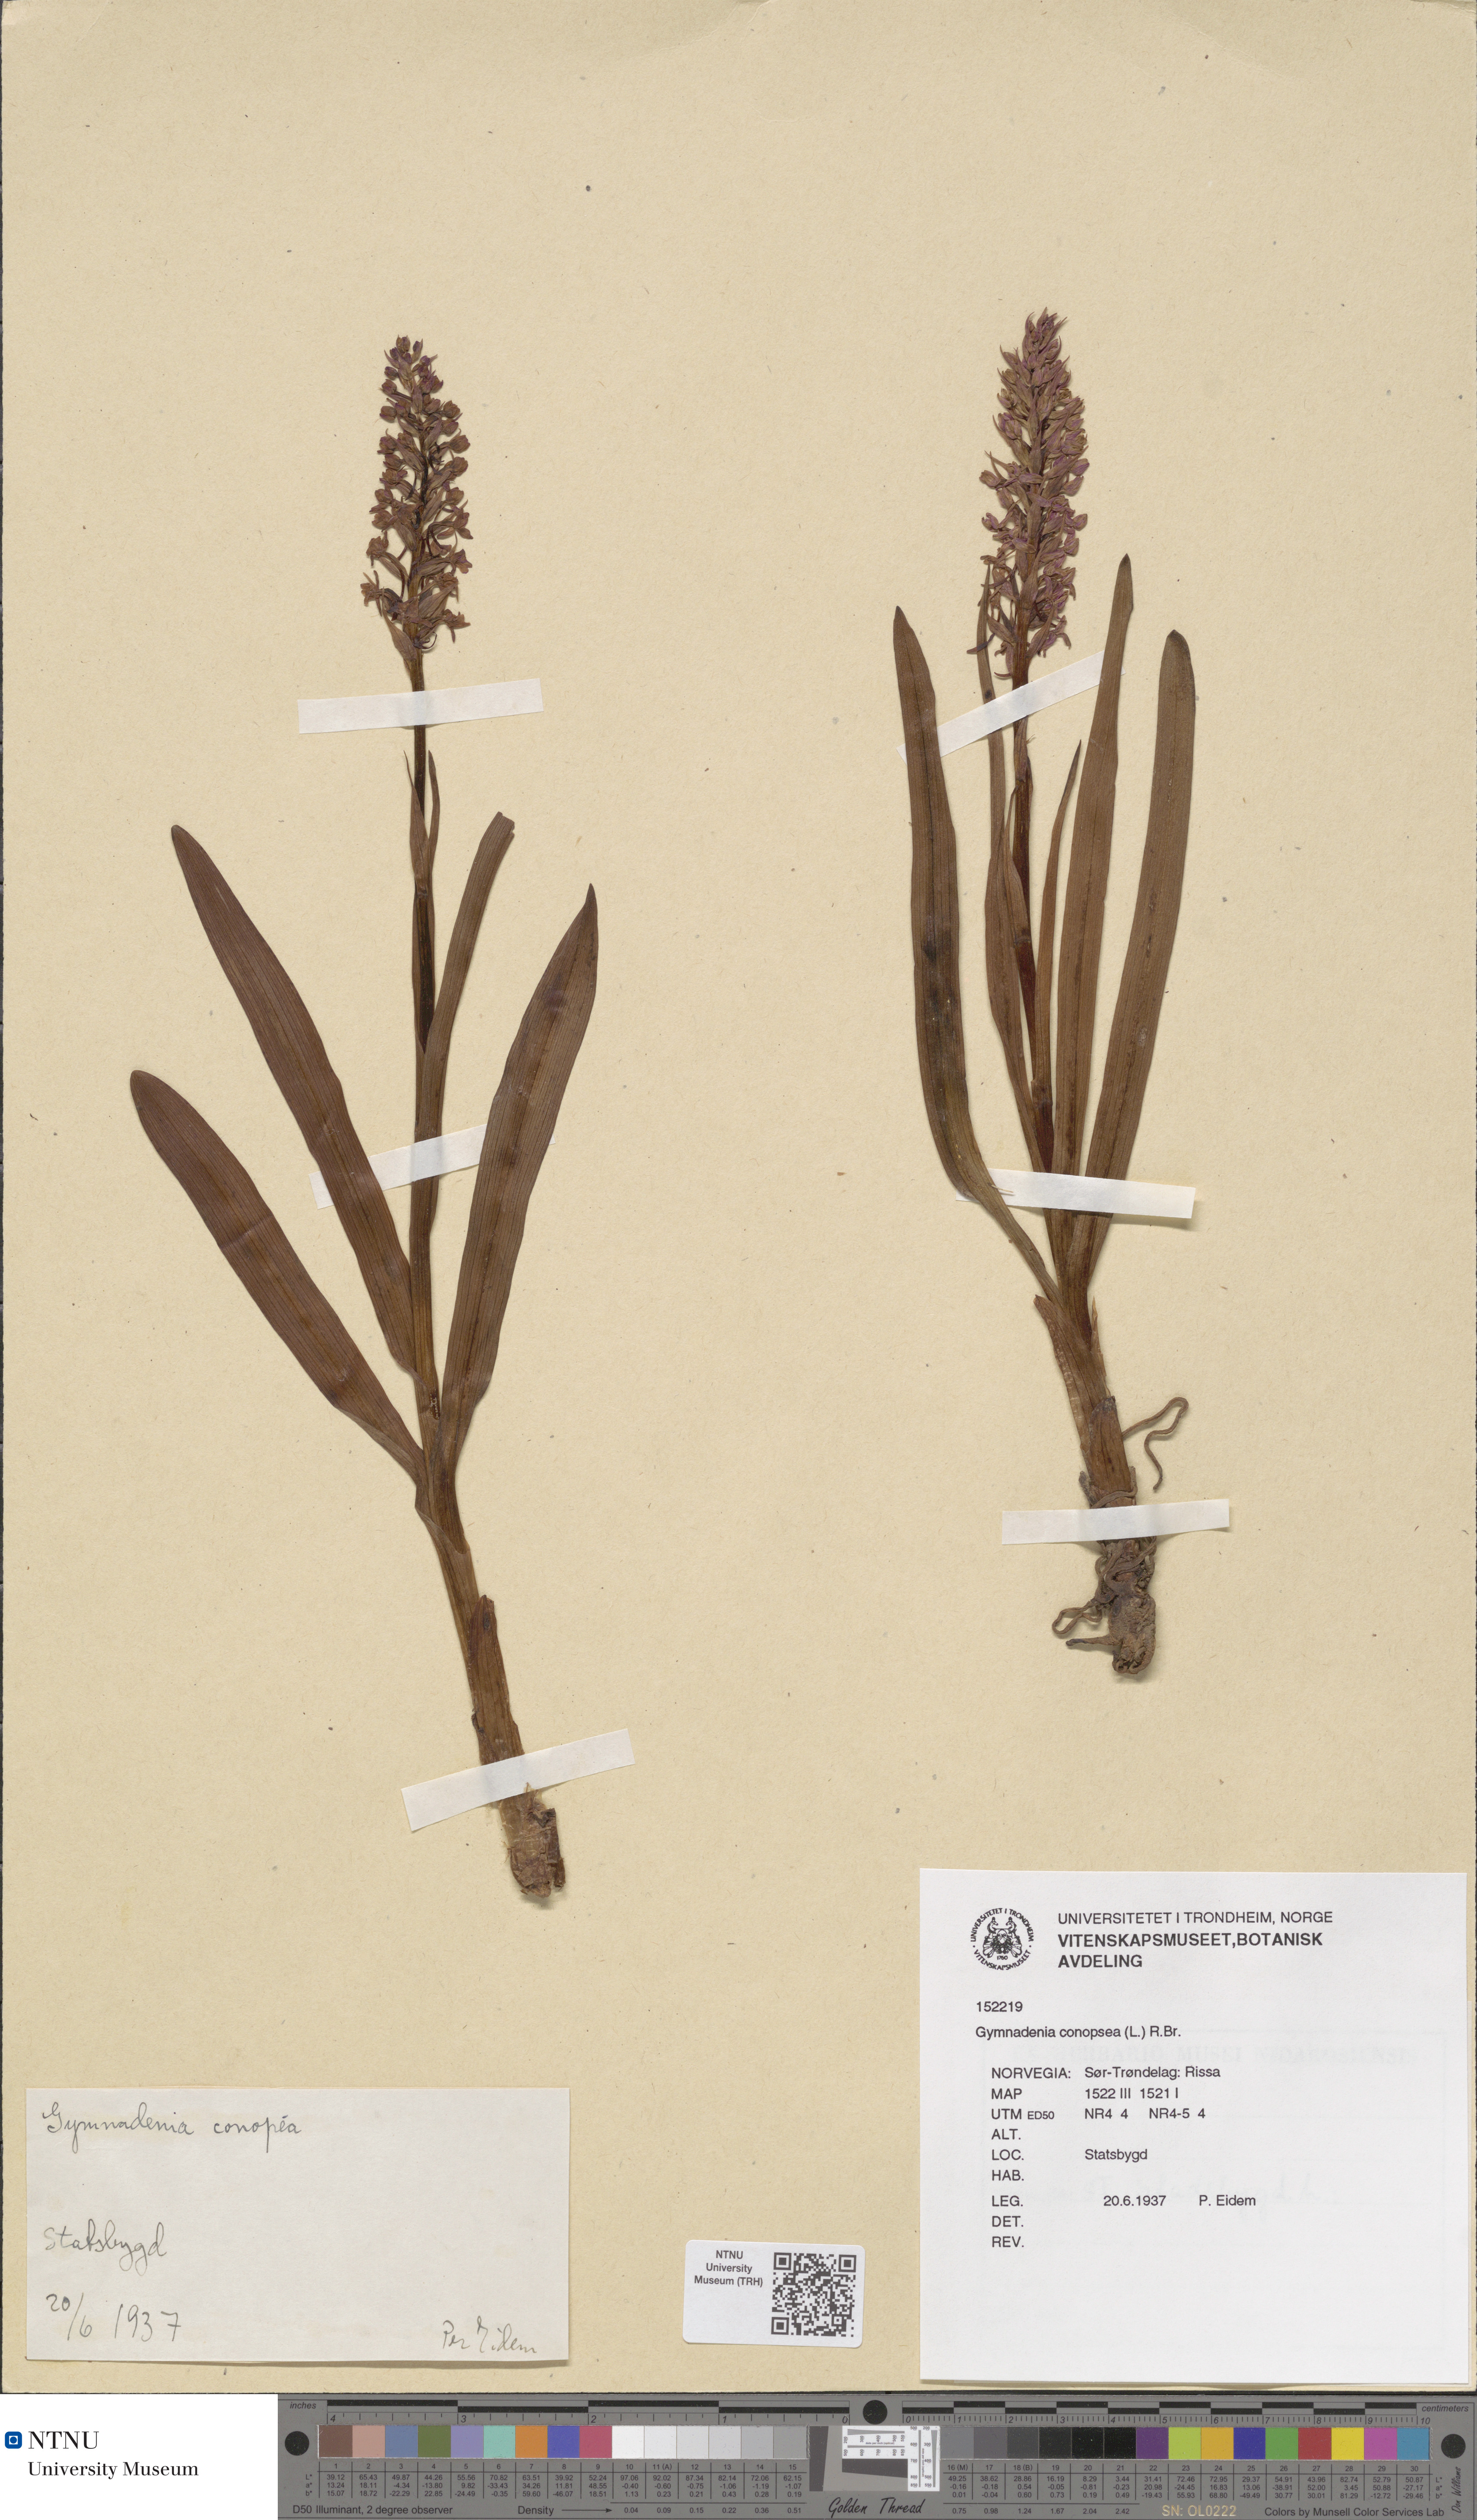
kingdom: Plantae
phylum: Tracheophyta
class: Liliopsida
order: Asparagales
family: Orchidaceae
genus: Gymnadenia
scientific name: Gymnadenia densiflora
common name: Marsh fragrant-orchid
